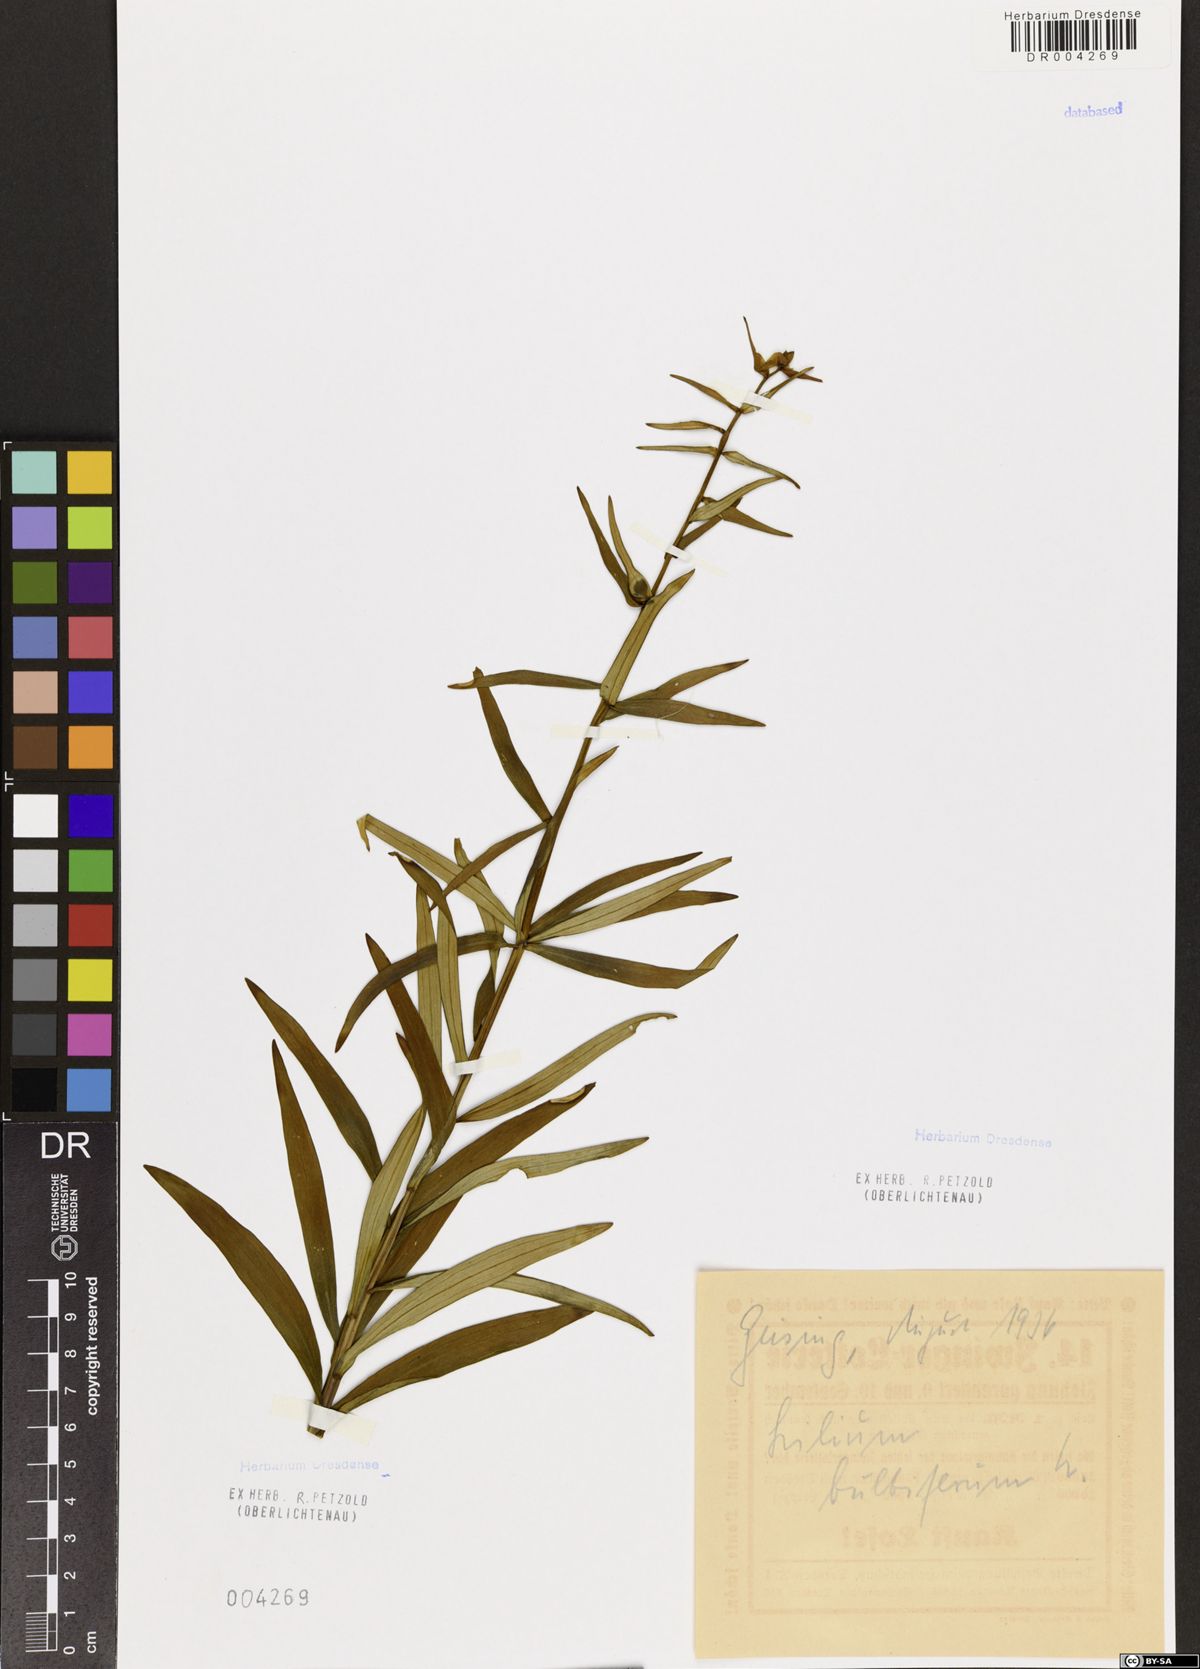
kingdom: Plantae
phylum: Tracheophyta
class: Liliopsida
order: Liliales
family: Liliaceae
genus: Lilium
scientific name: Lilium bulbiferum
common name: Orange lily
